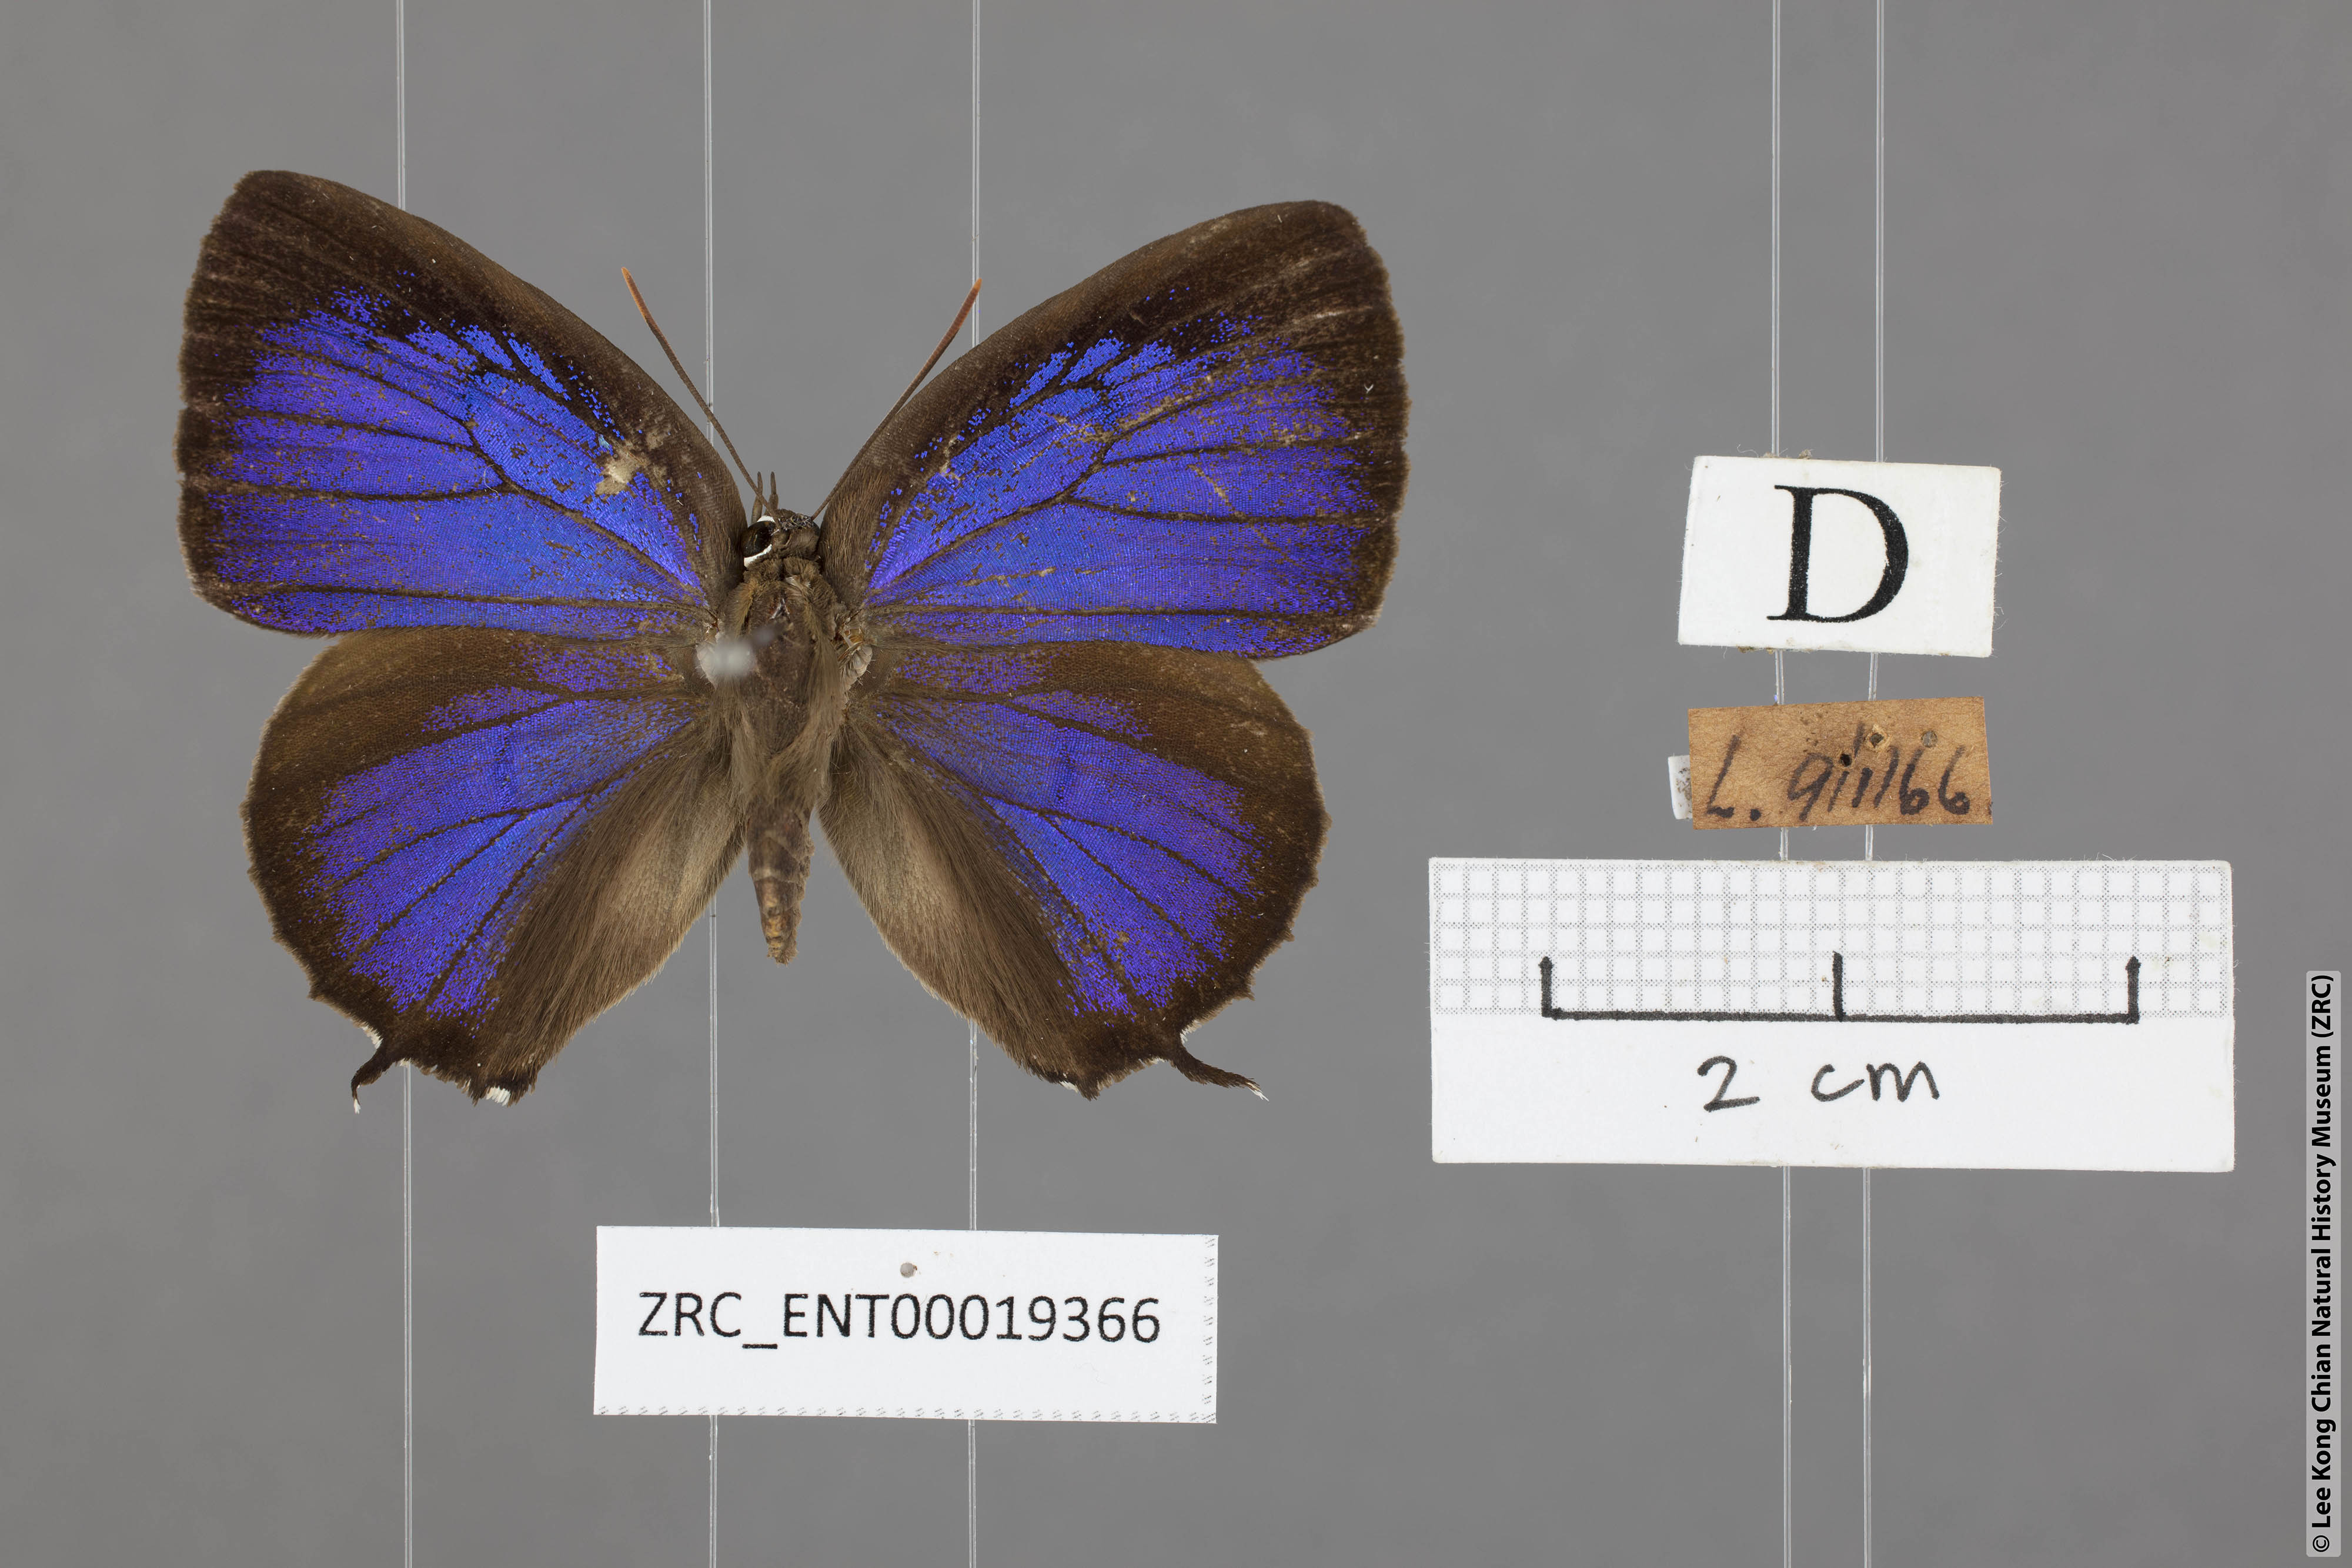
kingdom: Animalia
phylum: Arthropoda
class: Insecta
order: Lepidoptera
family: Lycaenidae
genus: Arhopala
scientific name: Arhopala corinda
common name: Ultramarine oakblue
